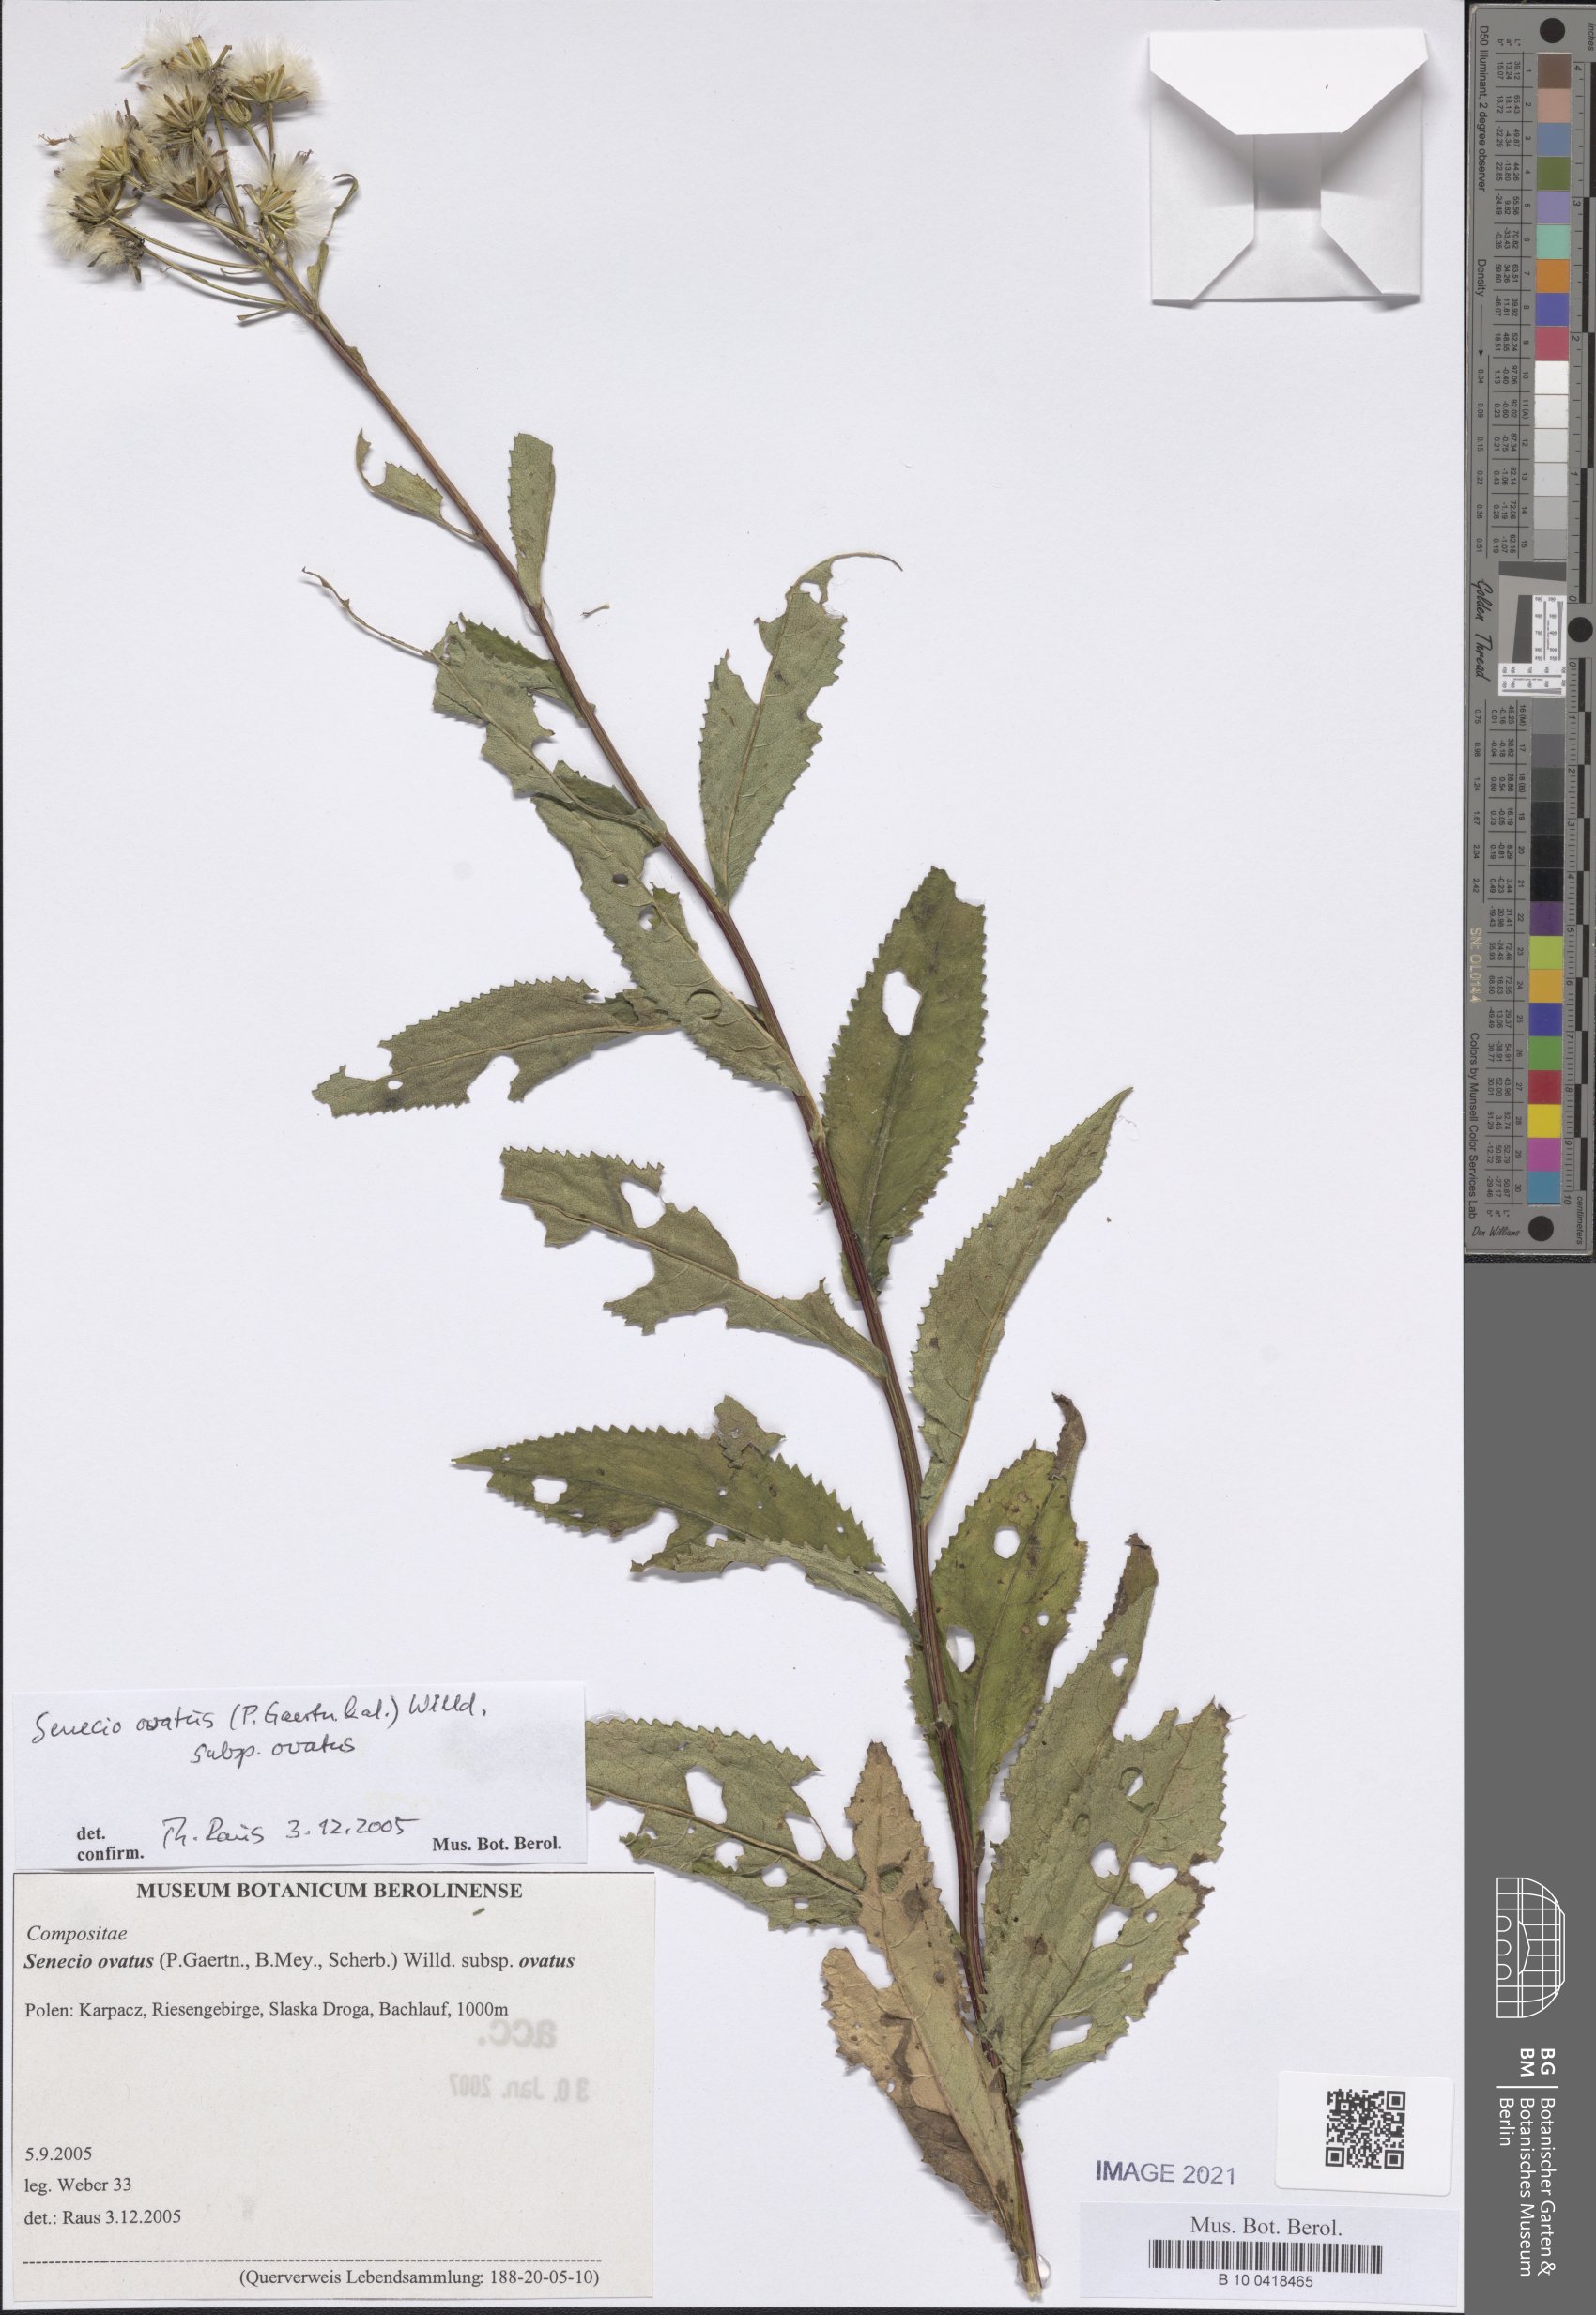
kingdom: Plantae
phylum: Tracheophyta
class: Magnoliopsida
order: Asterales
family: Asteraceae
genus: Senecio
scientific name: Senecio ovatus
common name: Wood ragwort
